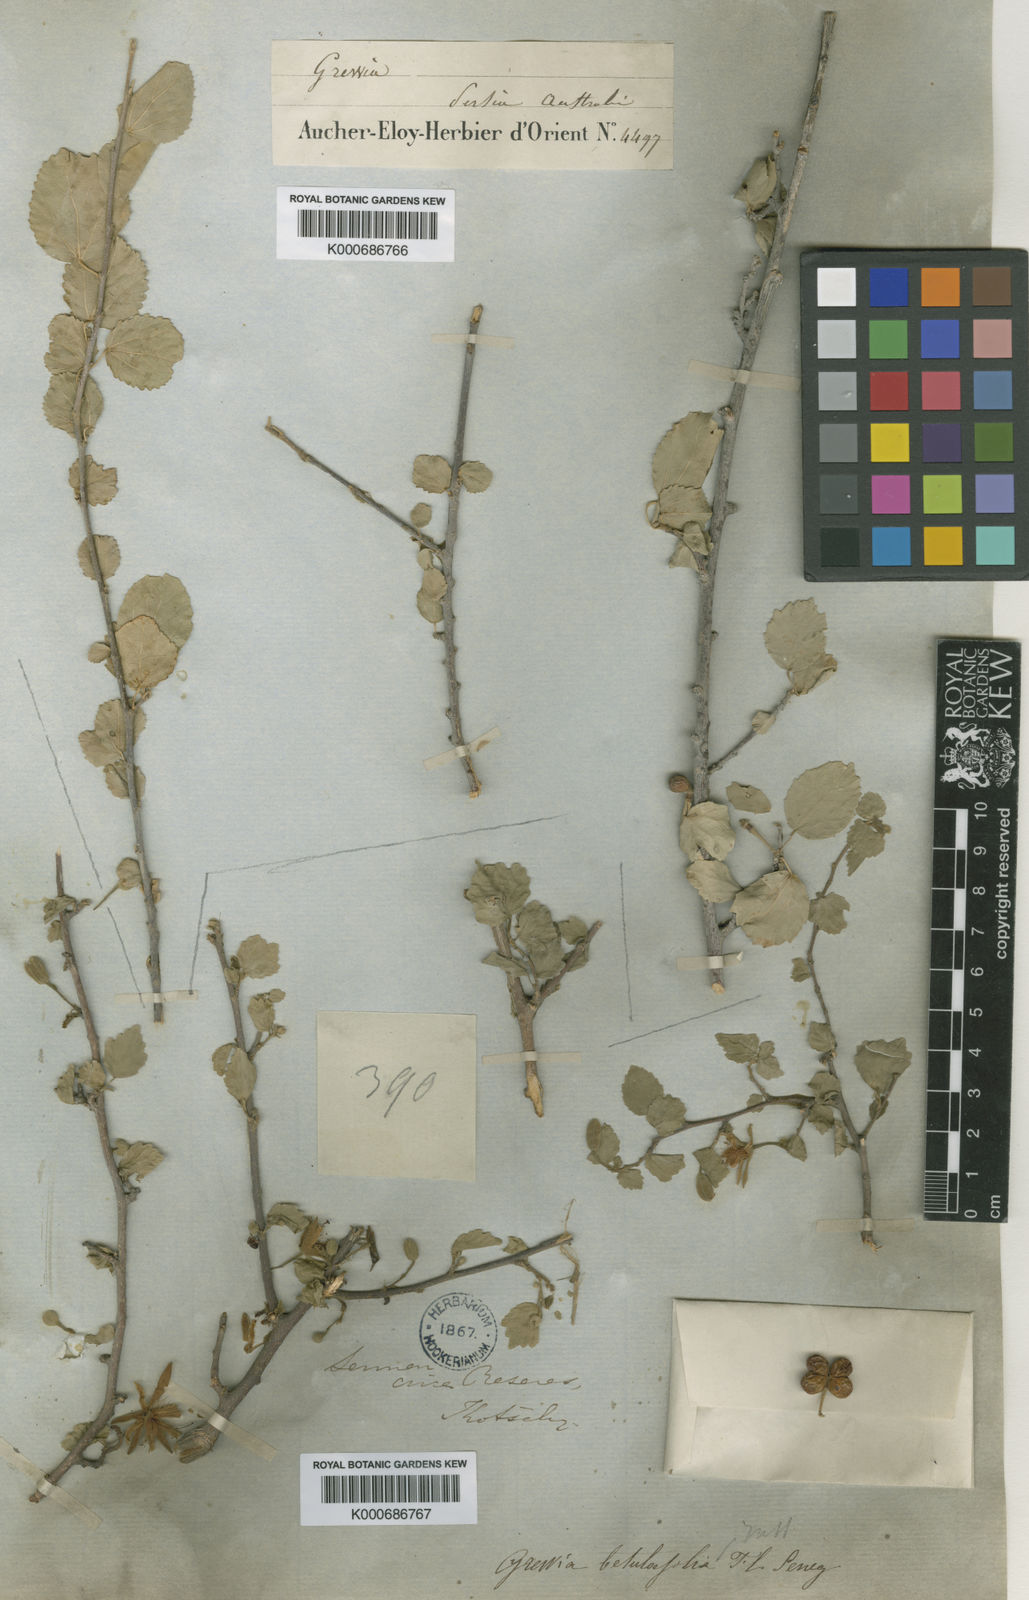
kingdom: Plantae
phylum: Tracheophyta
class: Magnoliopsida
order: Malvales
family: Malvaceae
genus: Grewia
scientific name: Grewia
